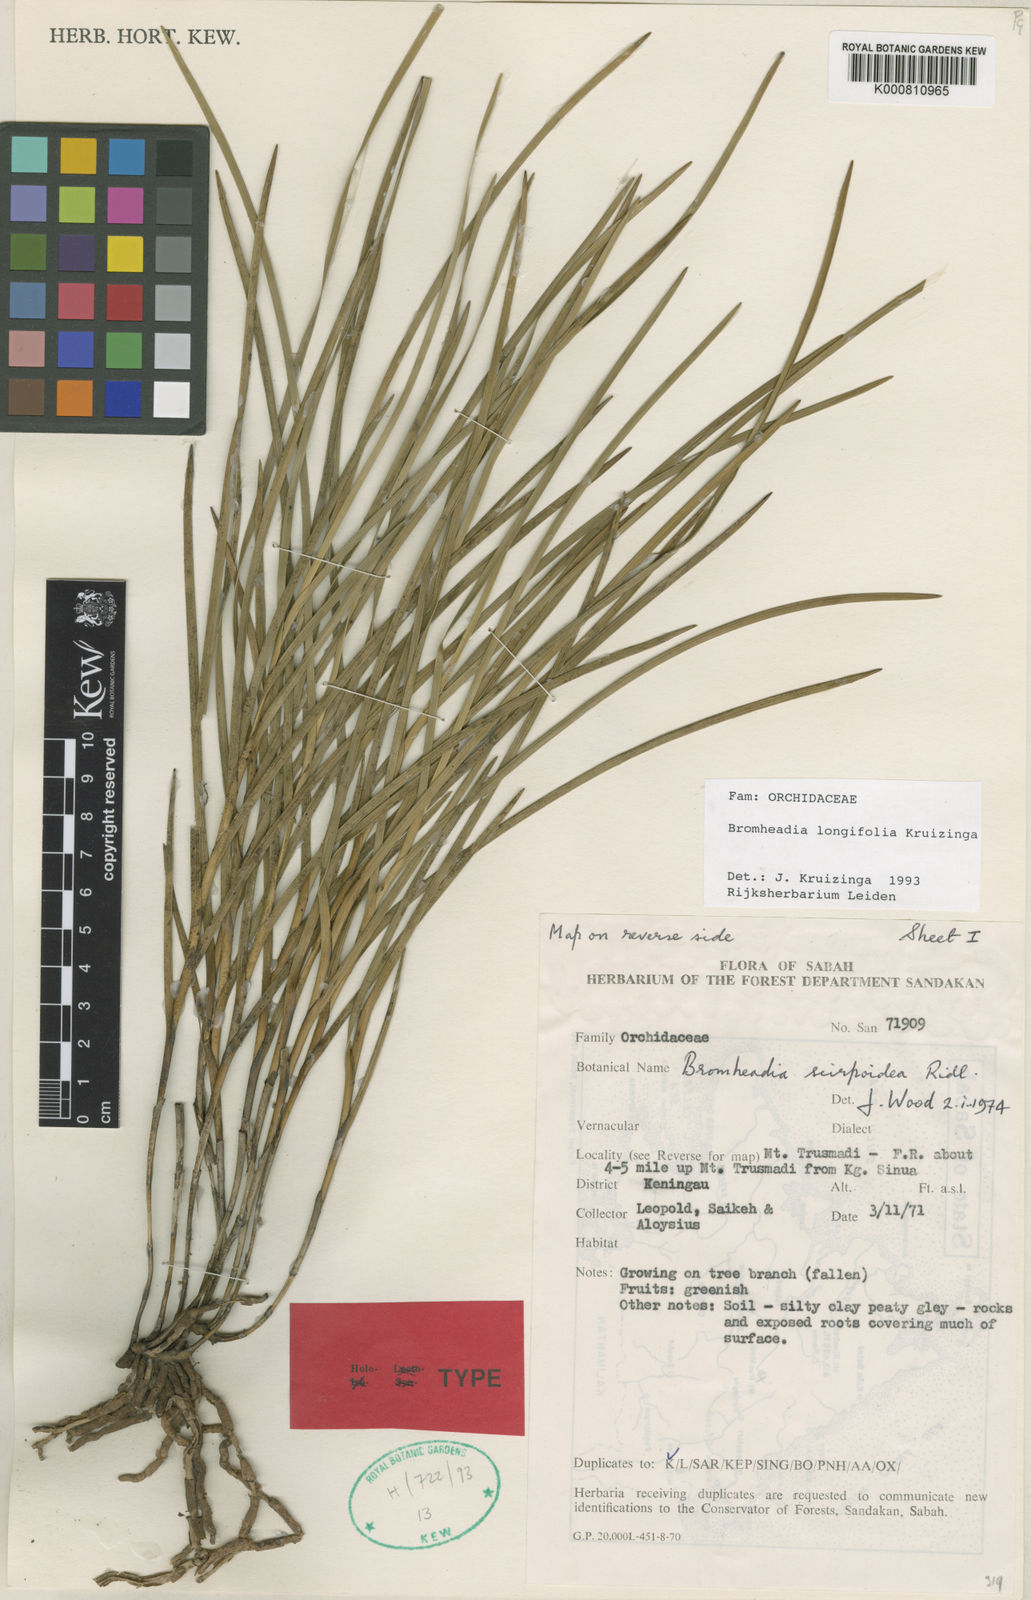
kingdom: Plantae
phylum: Tracheophyta
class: Liliopsida
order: Asparagales
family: Orchidaceae
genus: Bromheadia
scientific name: Bromheadia longifolia
